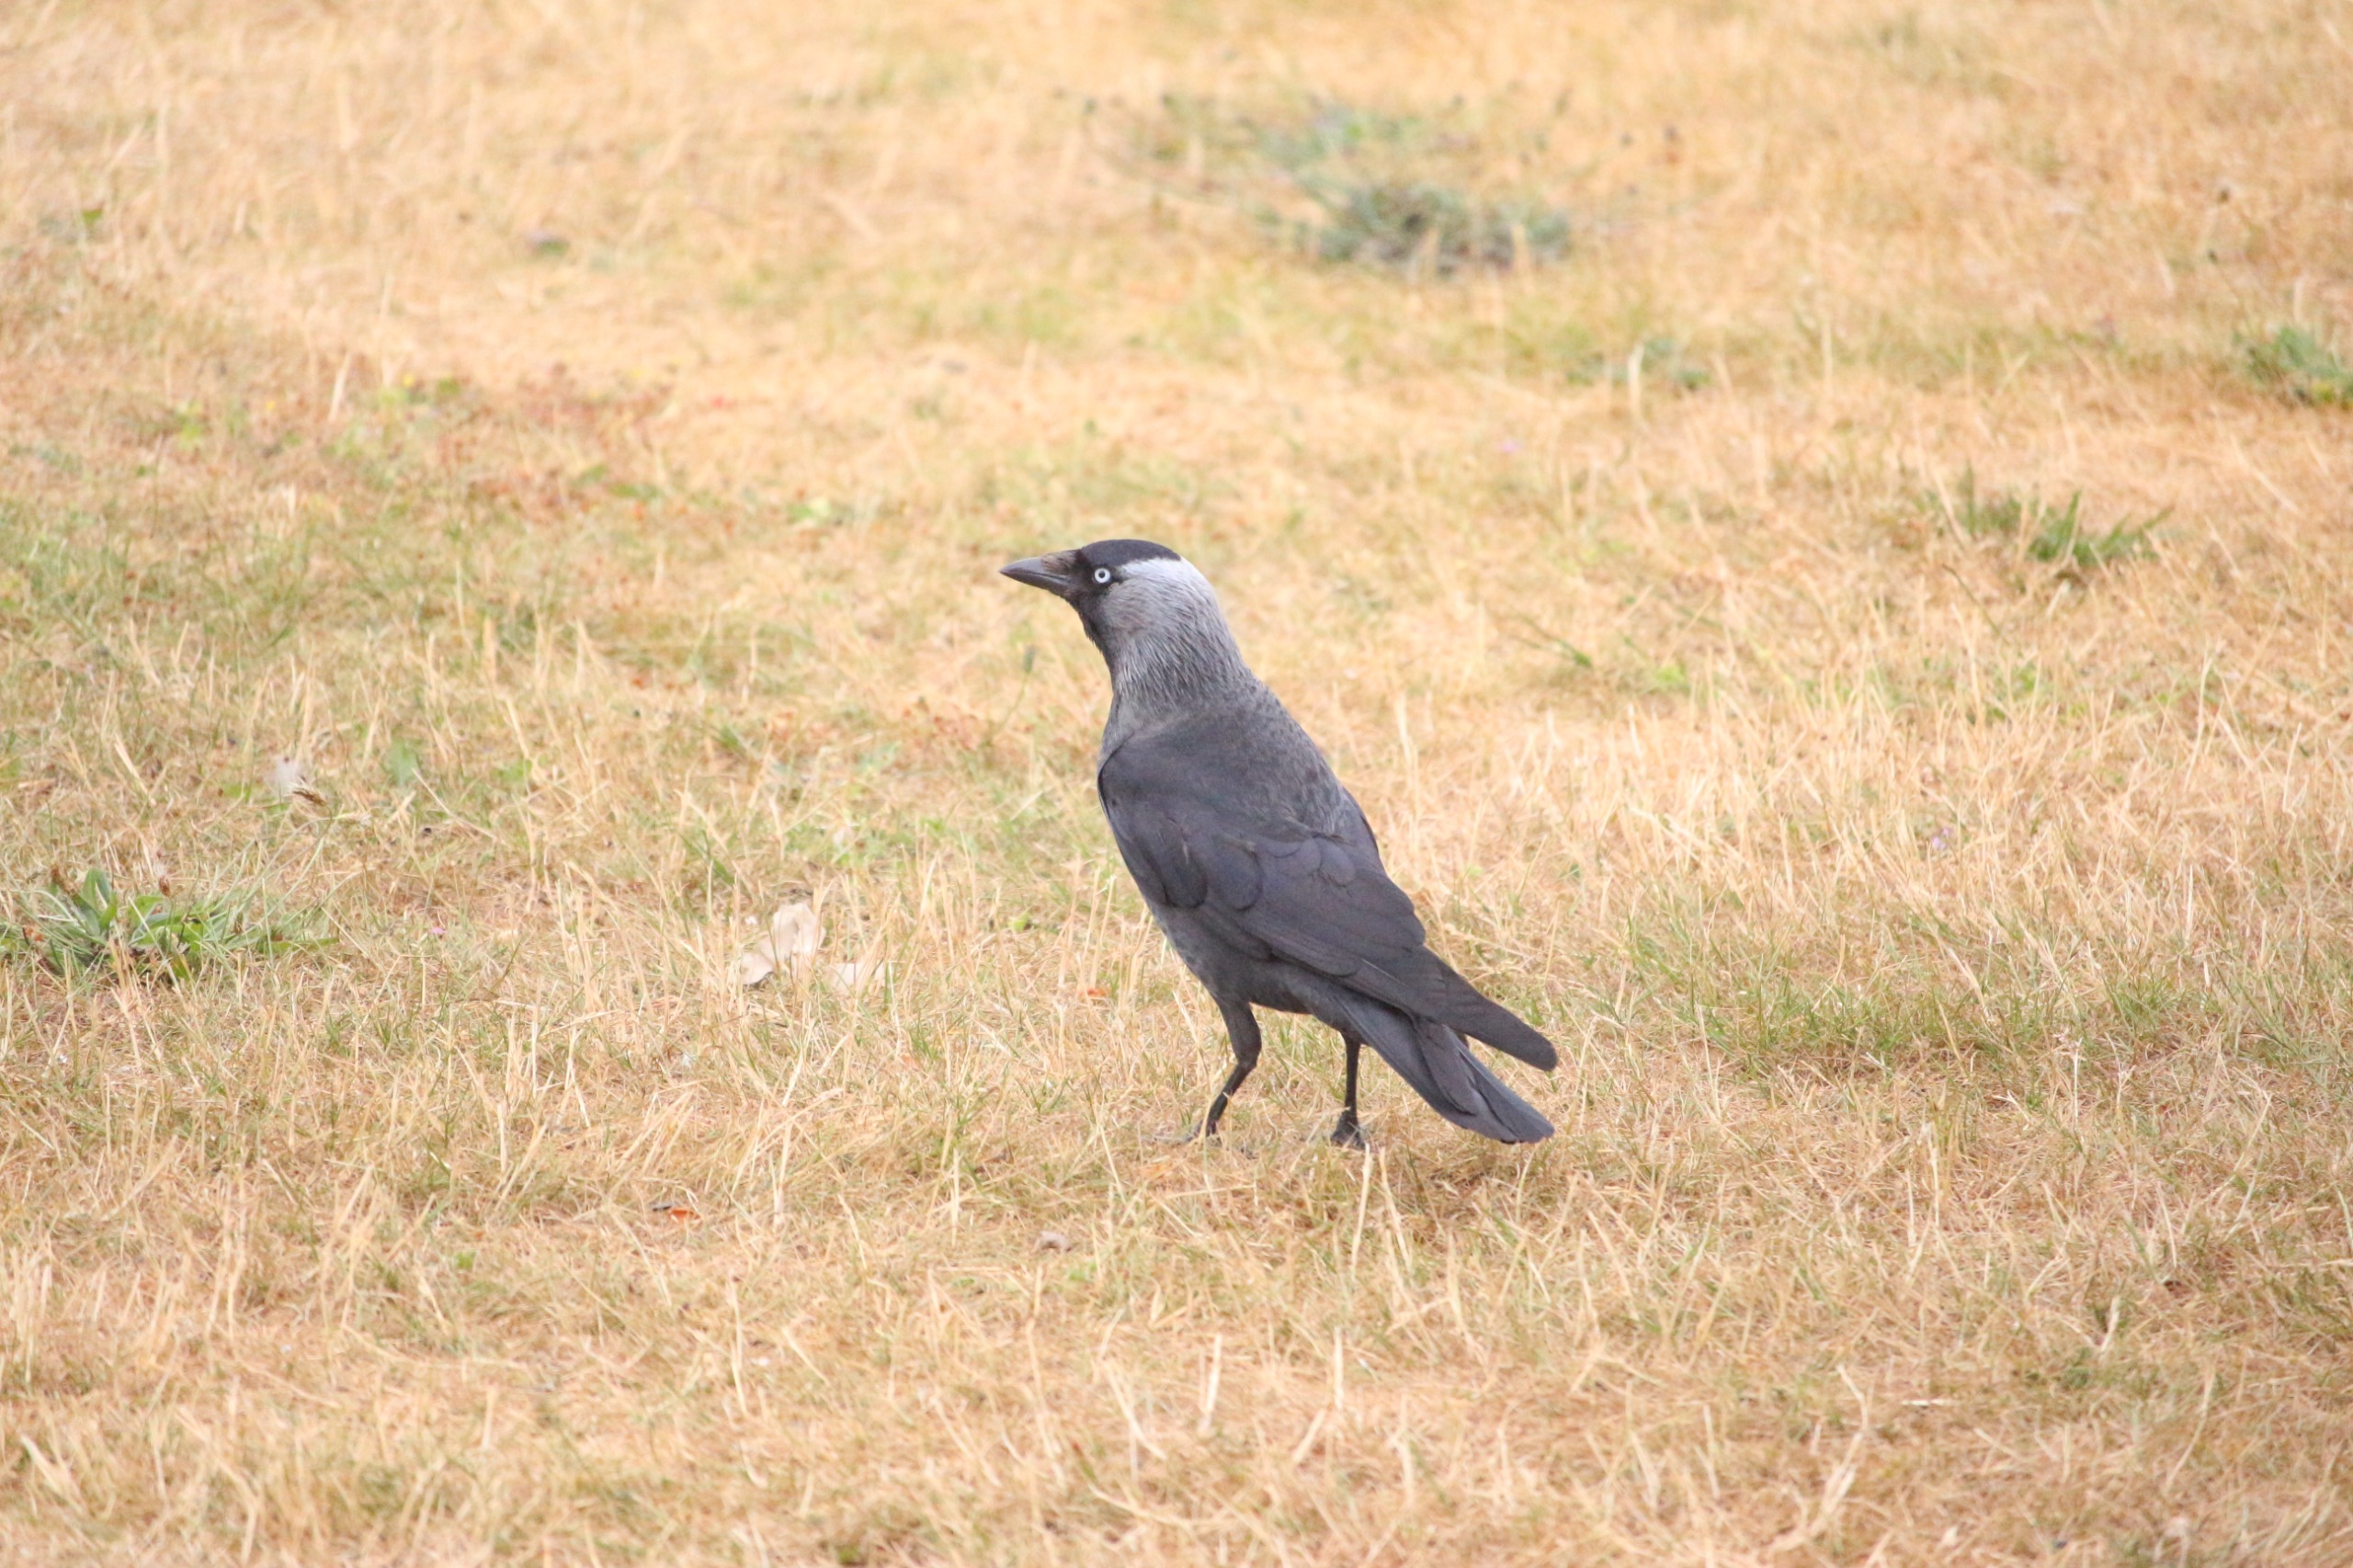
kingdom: Animalia
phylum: Chordata
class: Aves
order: Passeriformes
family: Corvidae
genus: Coloeus
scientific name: Coloeus monedula
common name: Allike
